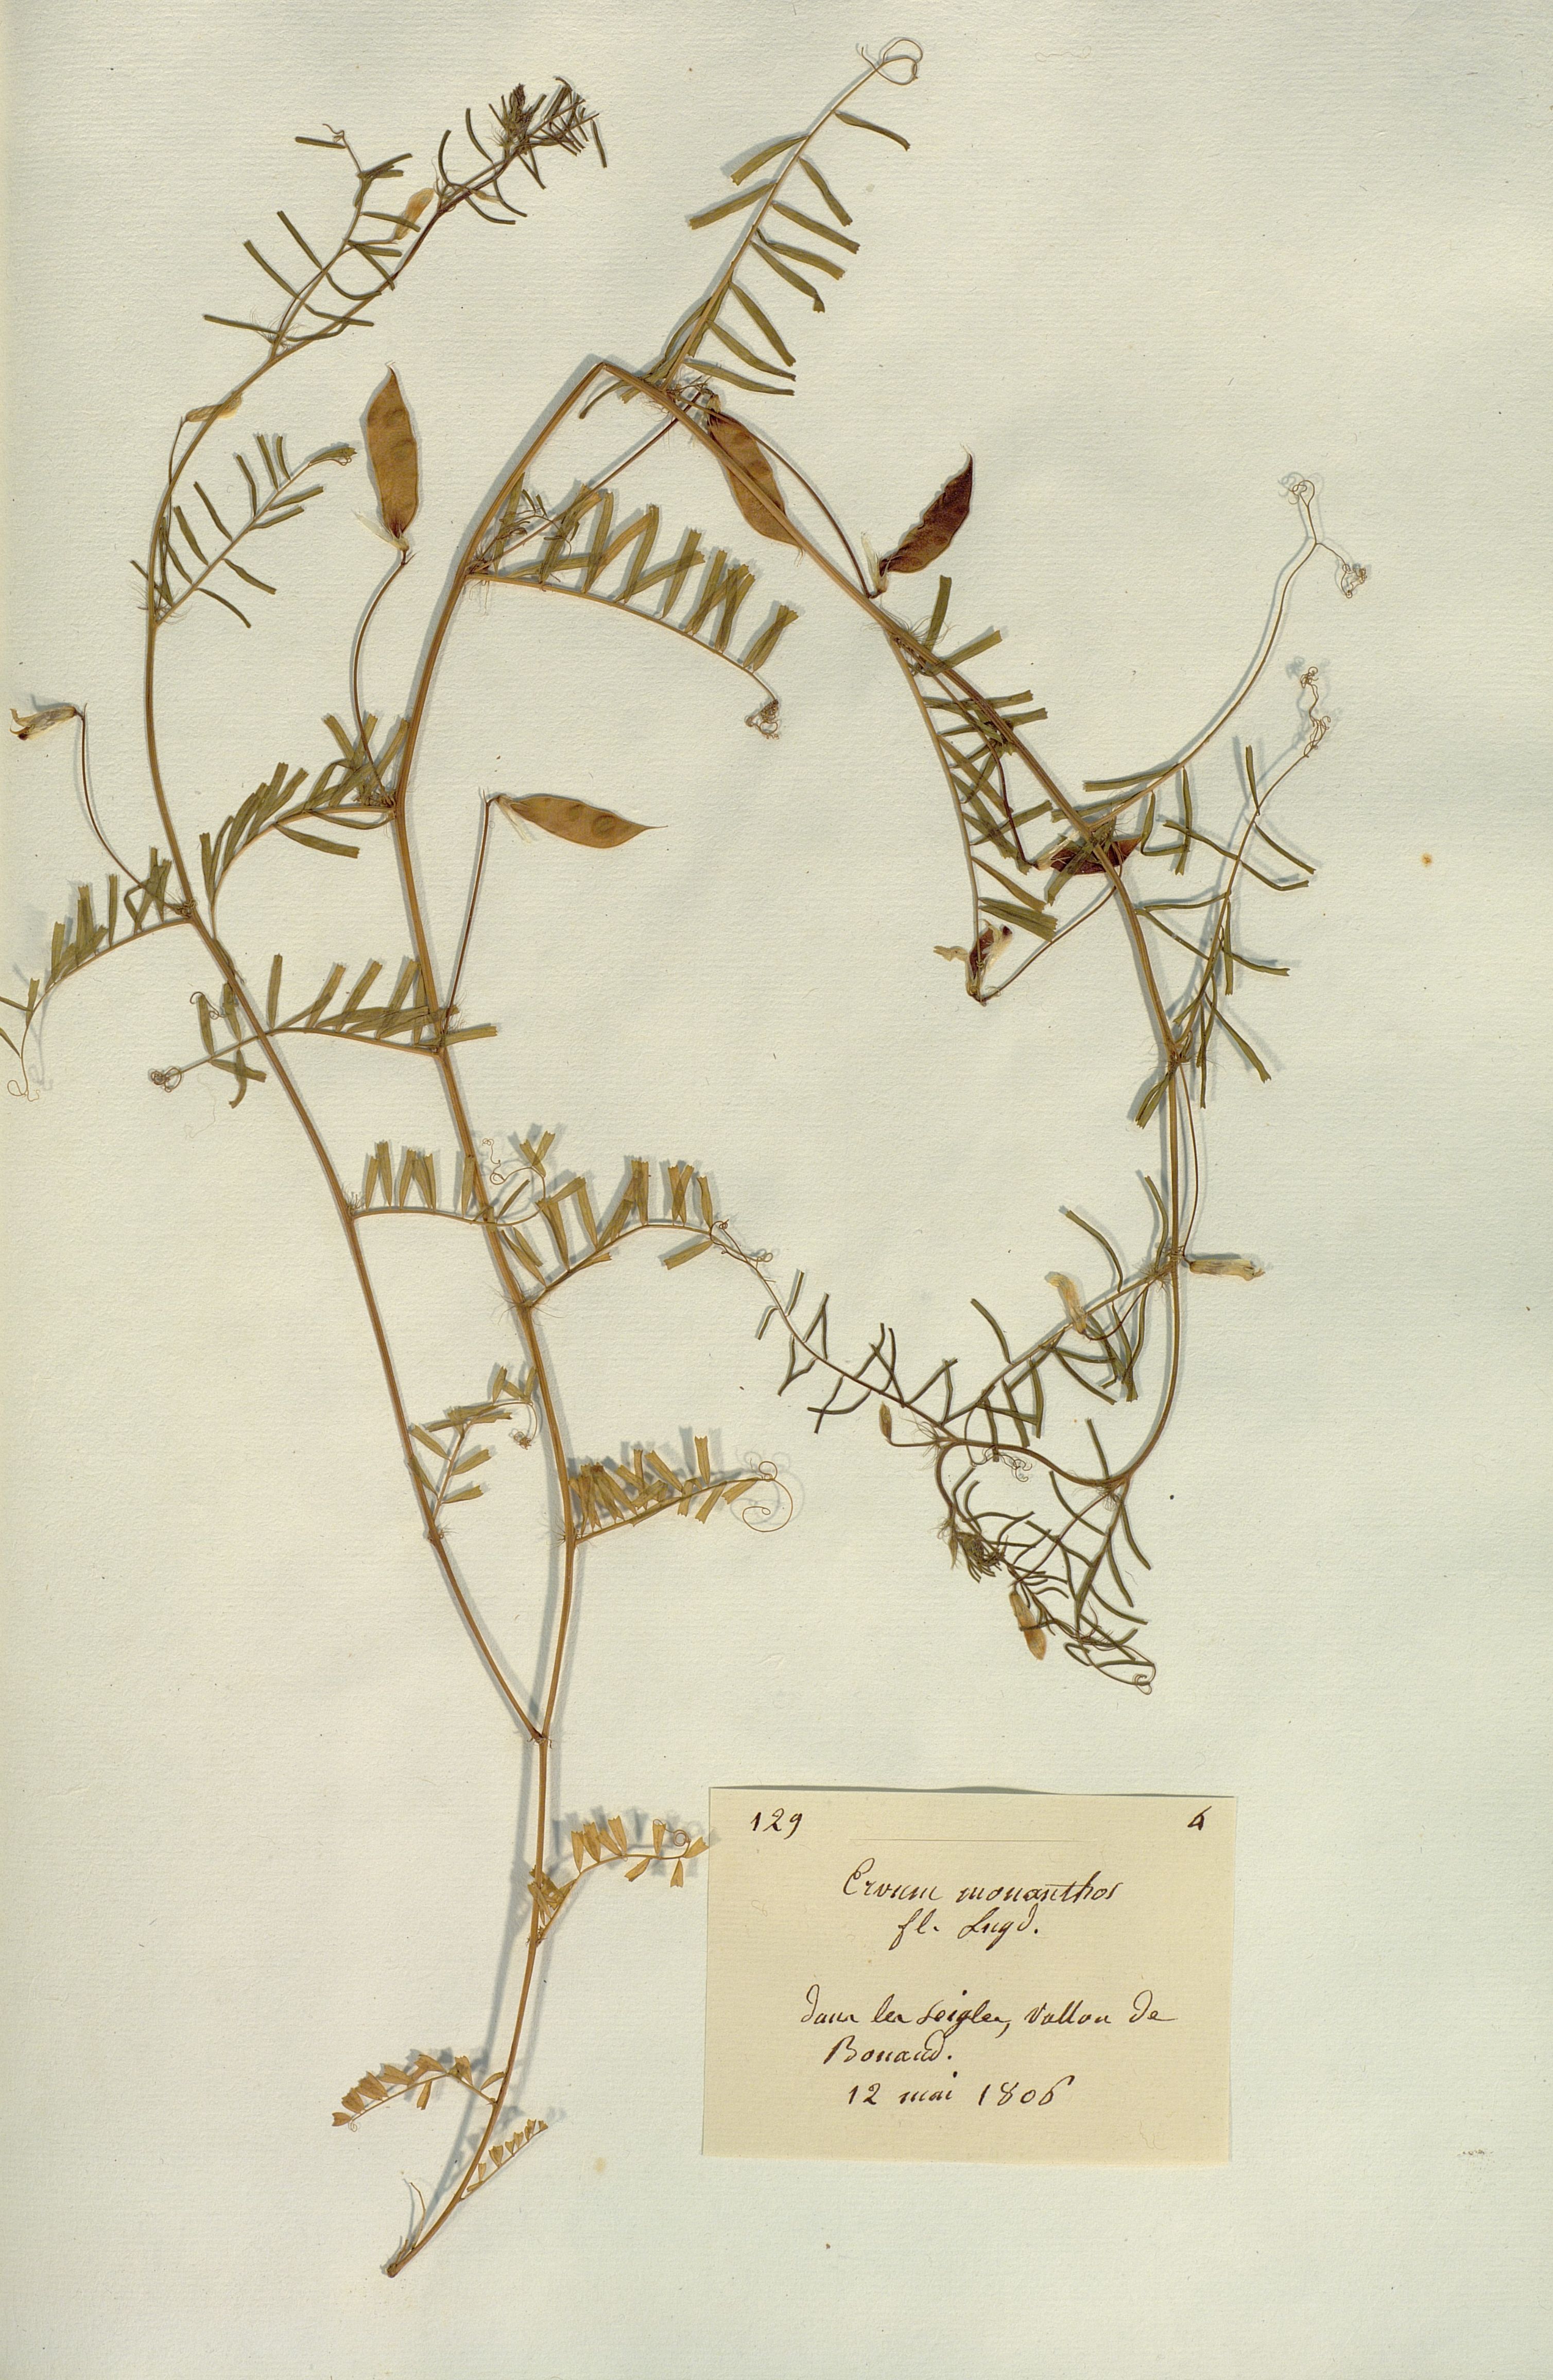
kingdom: Plantae
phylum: Tracheophyta
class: Magnoliopsida
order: Fabales
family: Fabaceae
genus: Vicia
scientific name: Vicia articulata
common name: Monantha vetch
